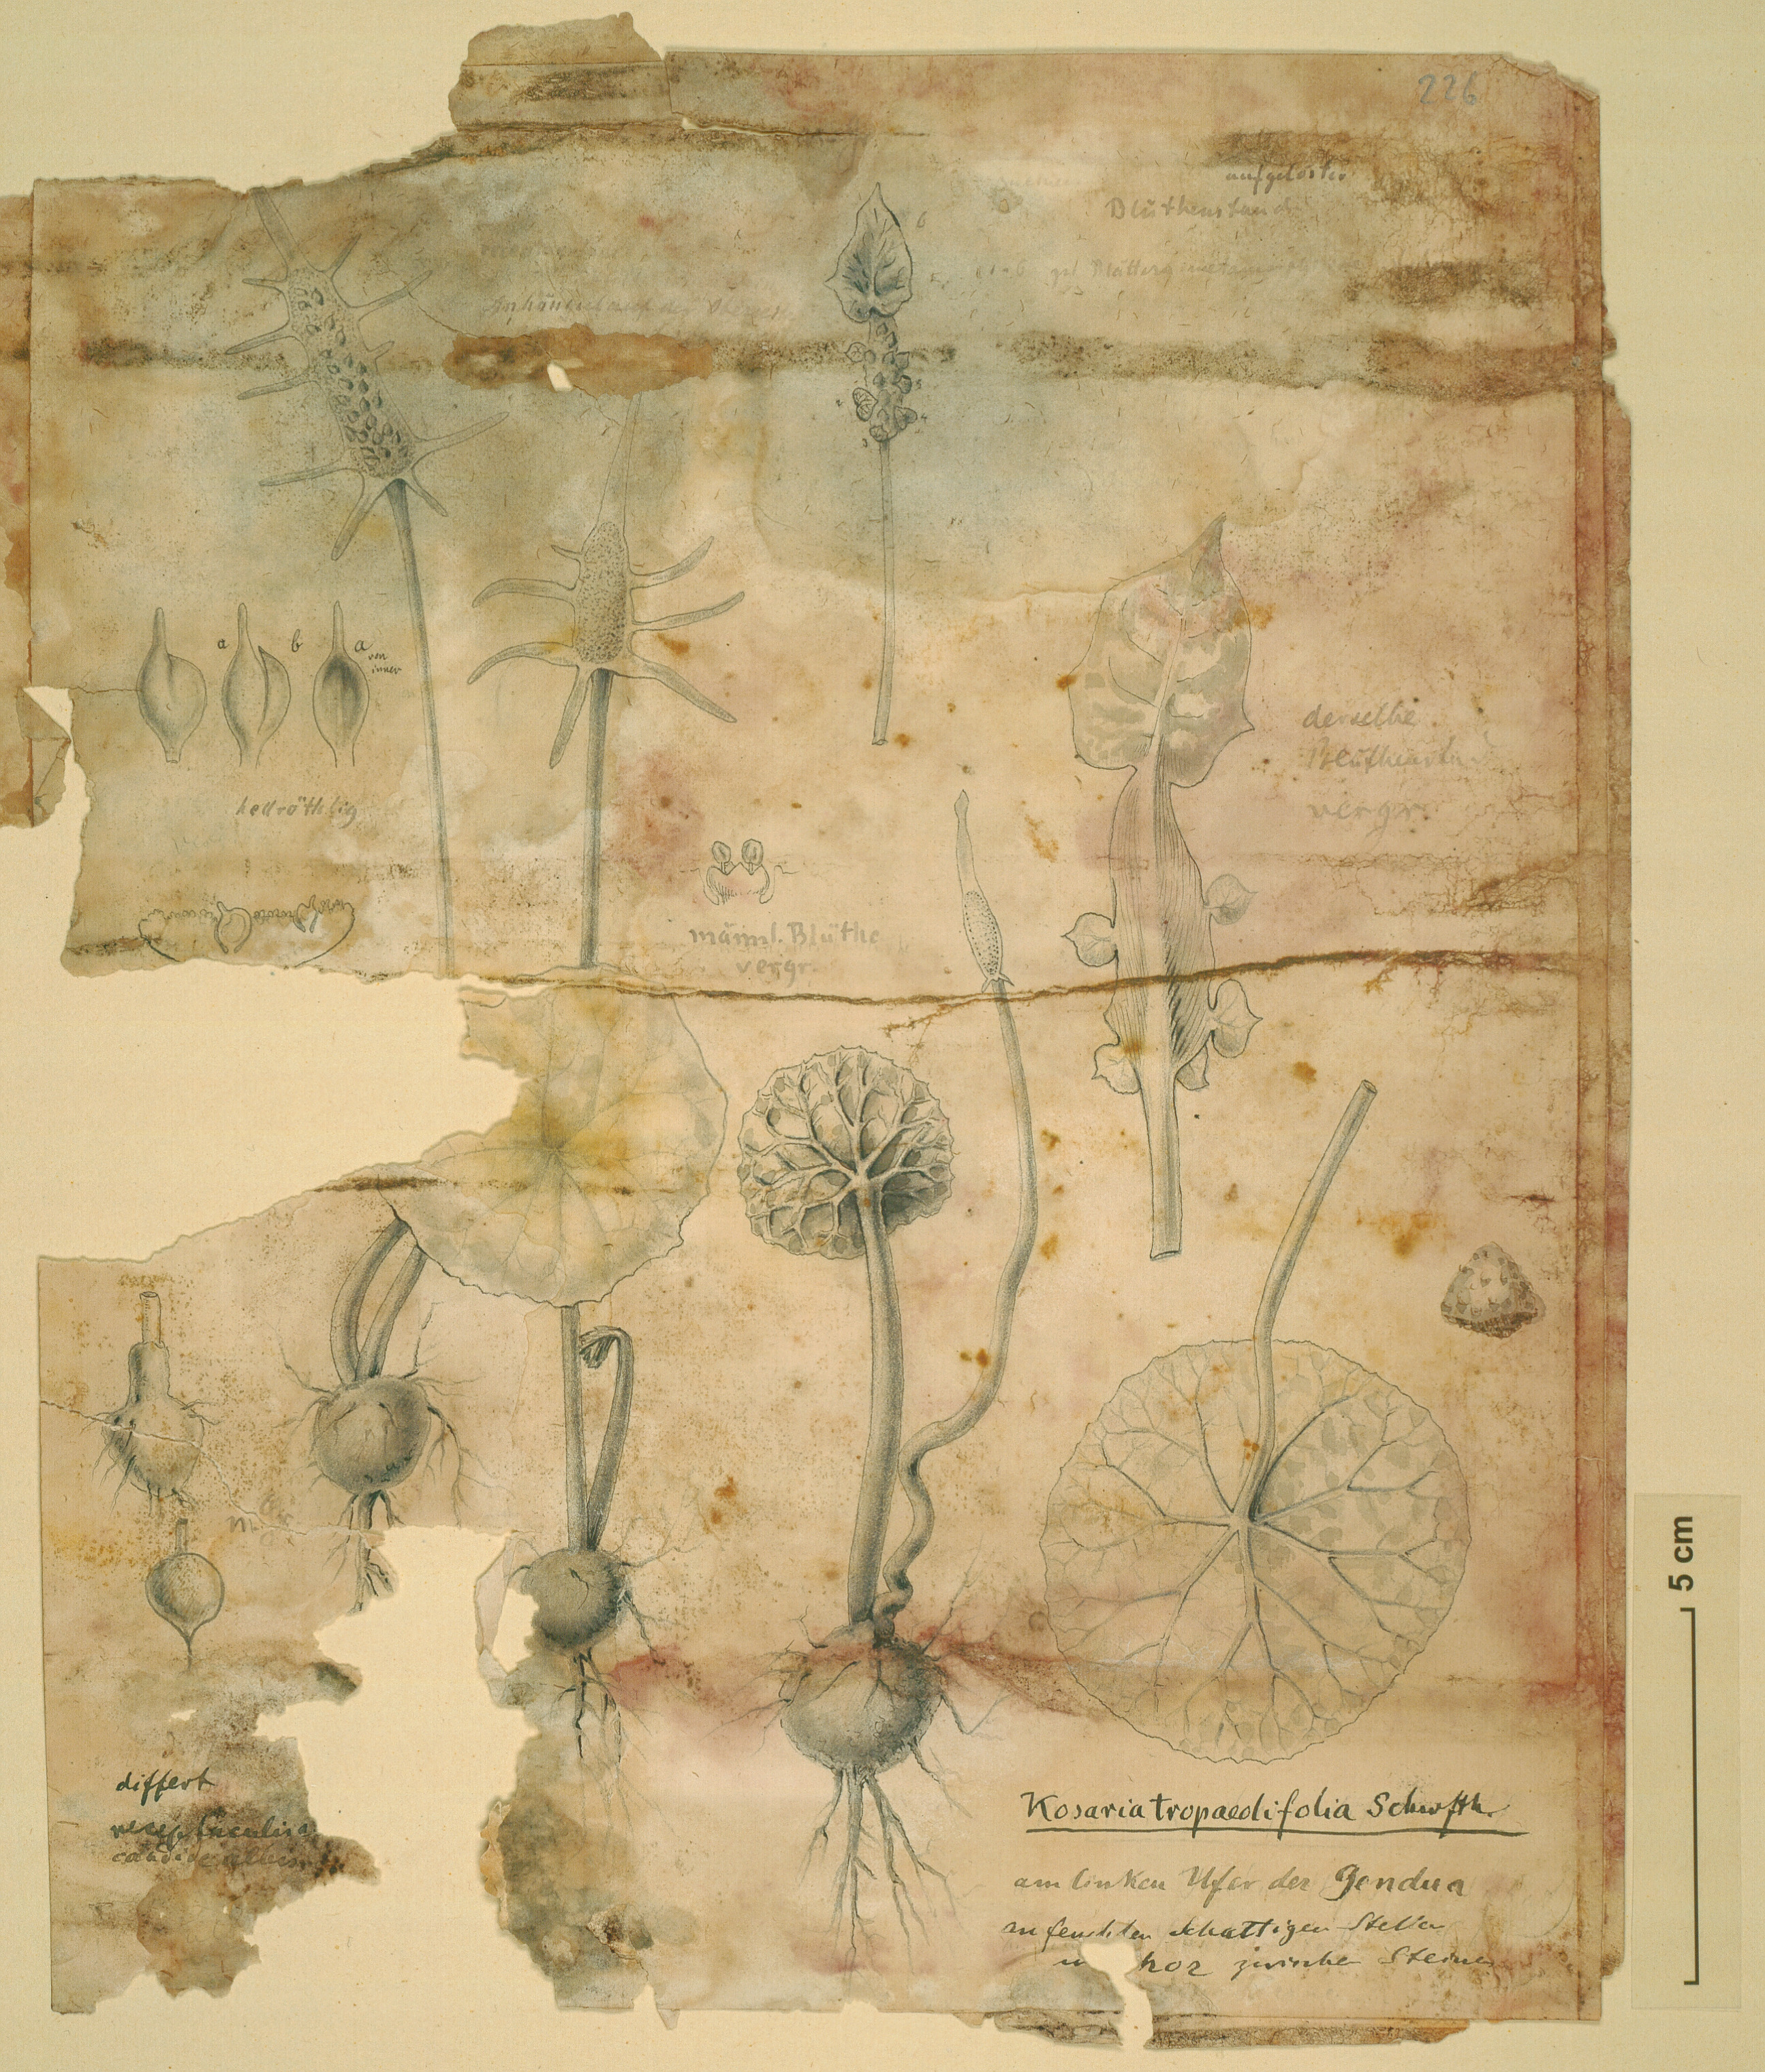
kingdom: Plantae
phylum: Tracheophyta
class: Magnoliopsida
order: Rosales
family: Moraceae
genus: Dorstenia
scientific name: Dorstenia barnimiana
